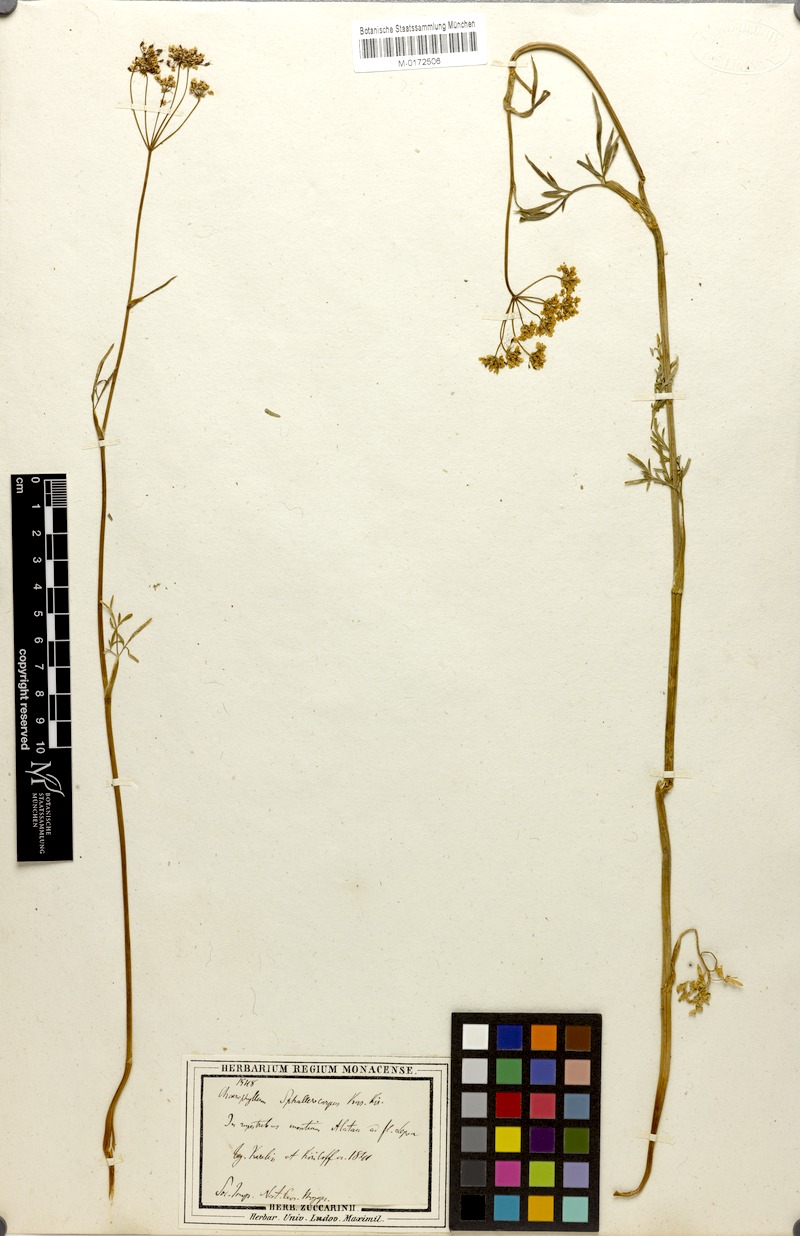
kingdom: Plantae
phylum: Tracheophyta
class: Magnoliopsida
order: Apiales
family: Apiaceae
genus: Kozlovia
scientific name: Kozlovia longiloba
